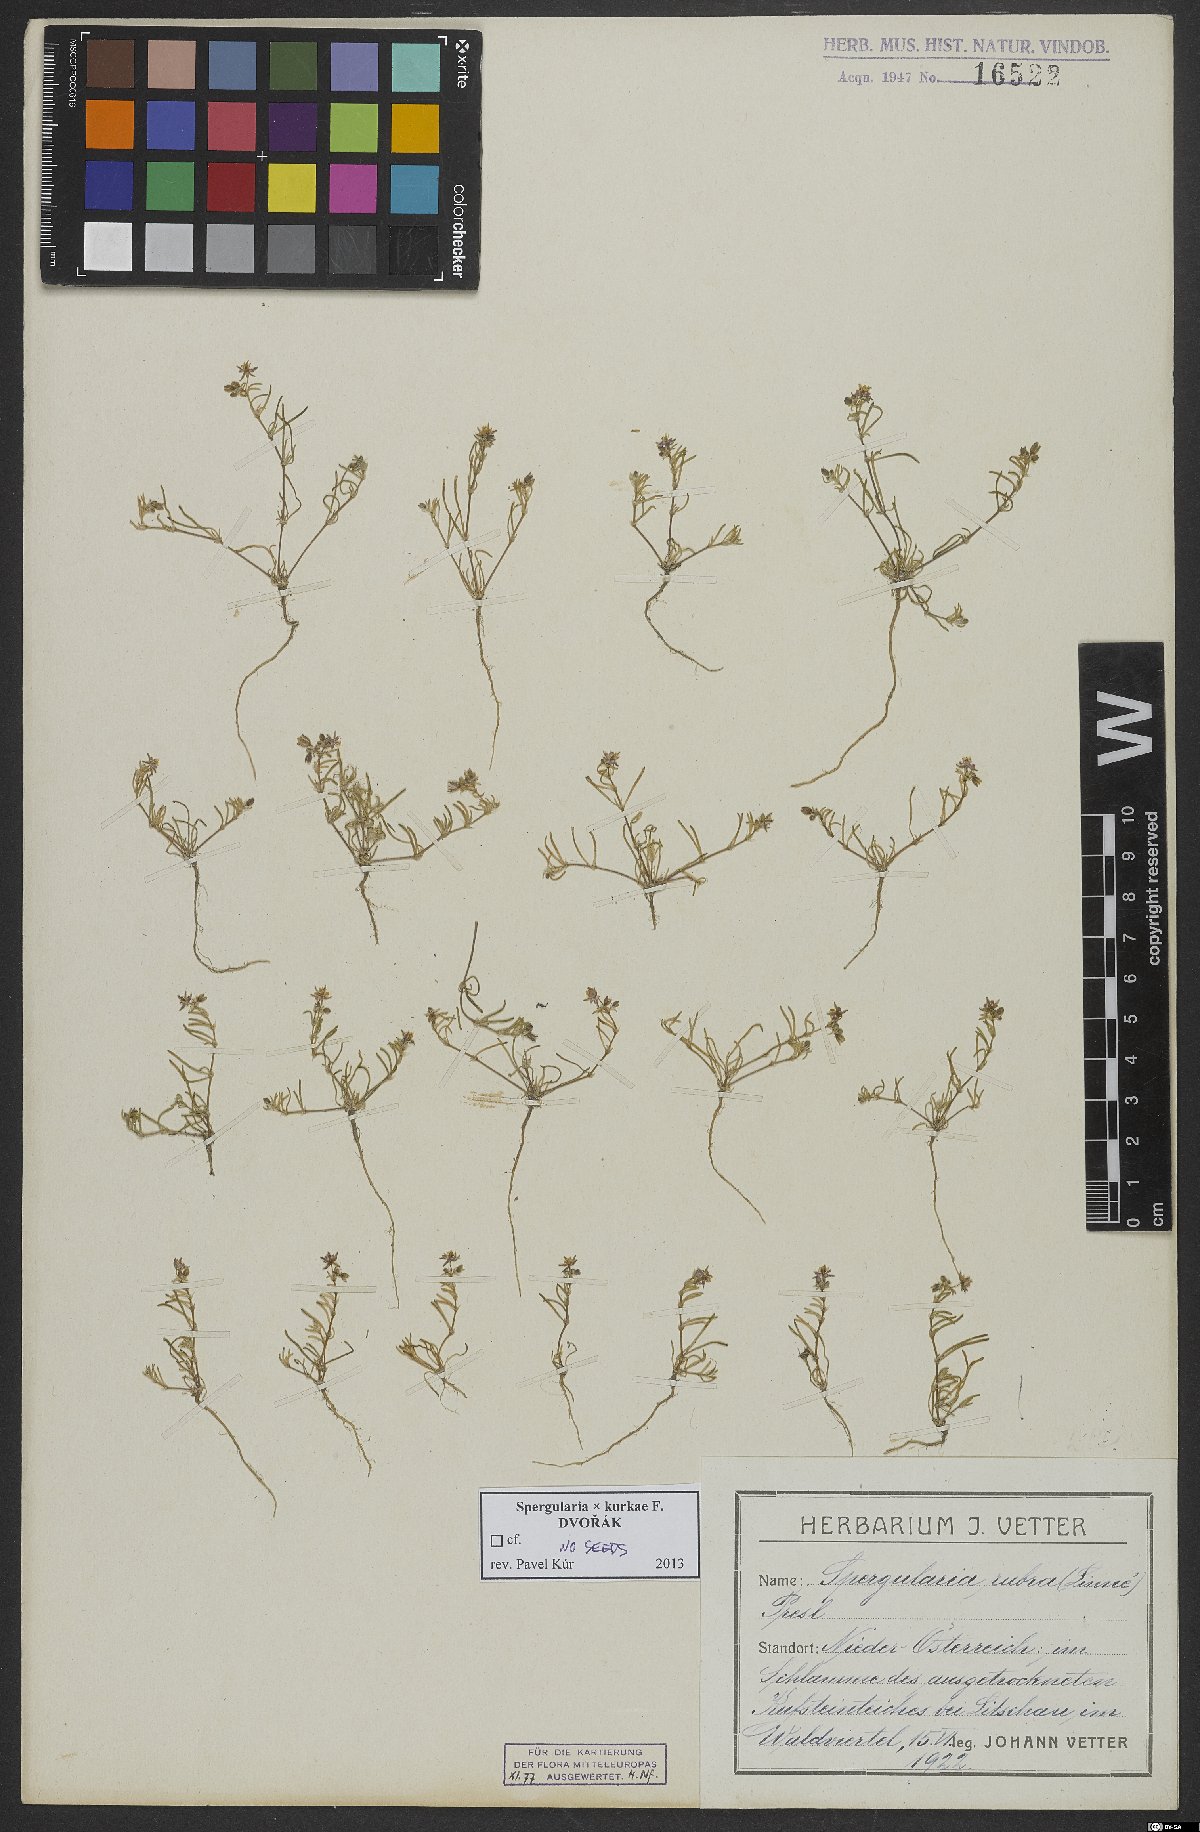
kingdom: Plantae
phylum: Tracheophyta
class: Magnoliopsida
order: Caryophyllales
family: Caryophyllaceae
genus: Spergularia
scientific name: Spergularia kurkae
